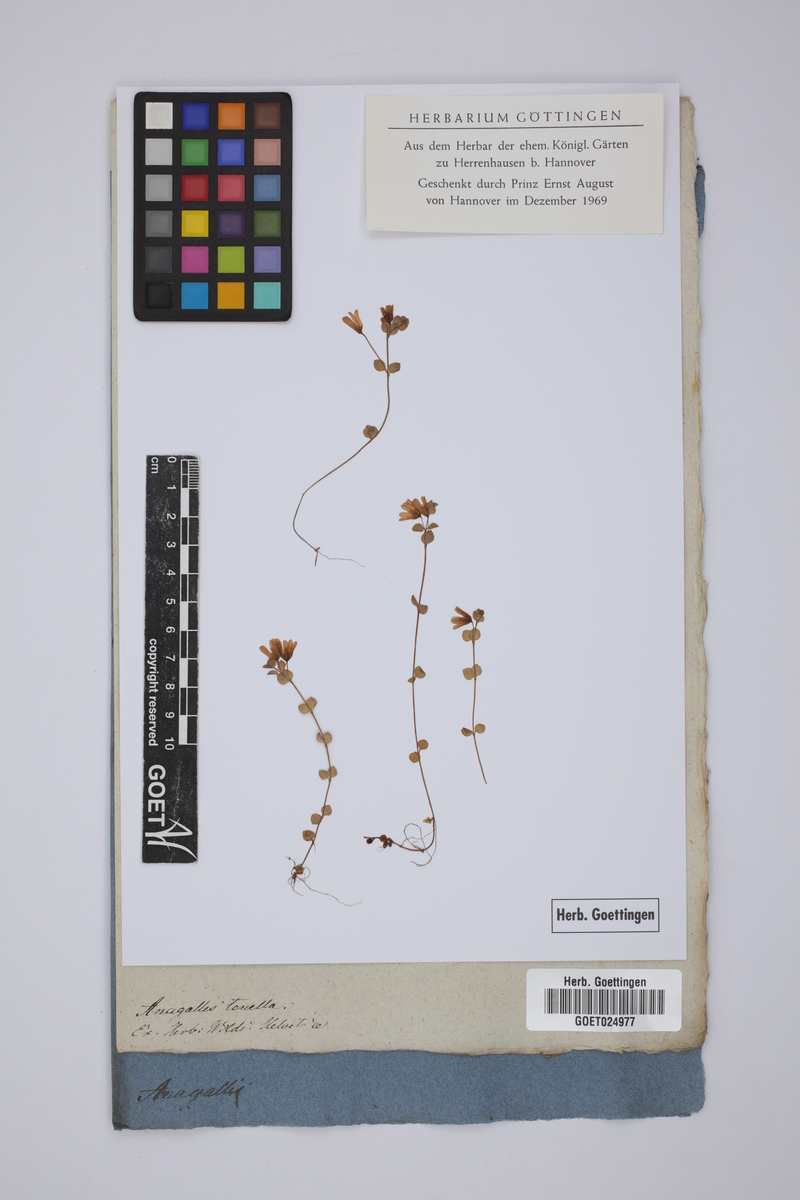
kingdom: Plantae
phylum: Tracheophyta
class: Magnoliopsida
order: Ericales
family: Primulaceae
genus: Lysimachia
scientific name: Lysimachia tenella
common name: European bog pimpernel
